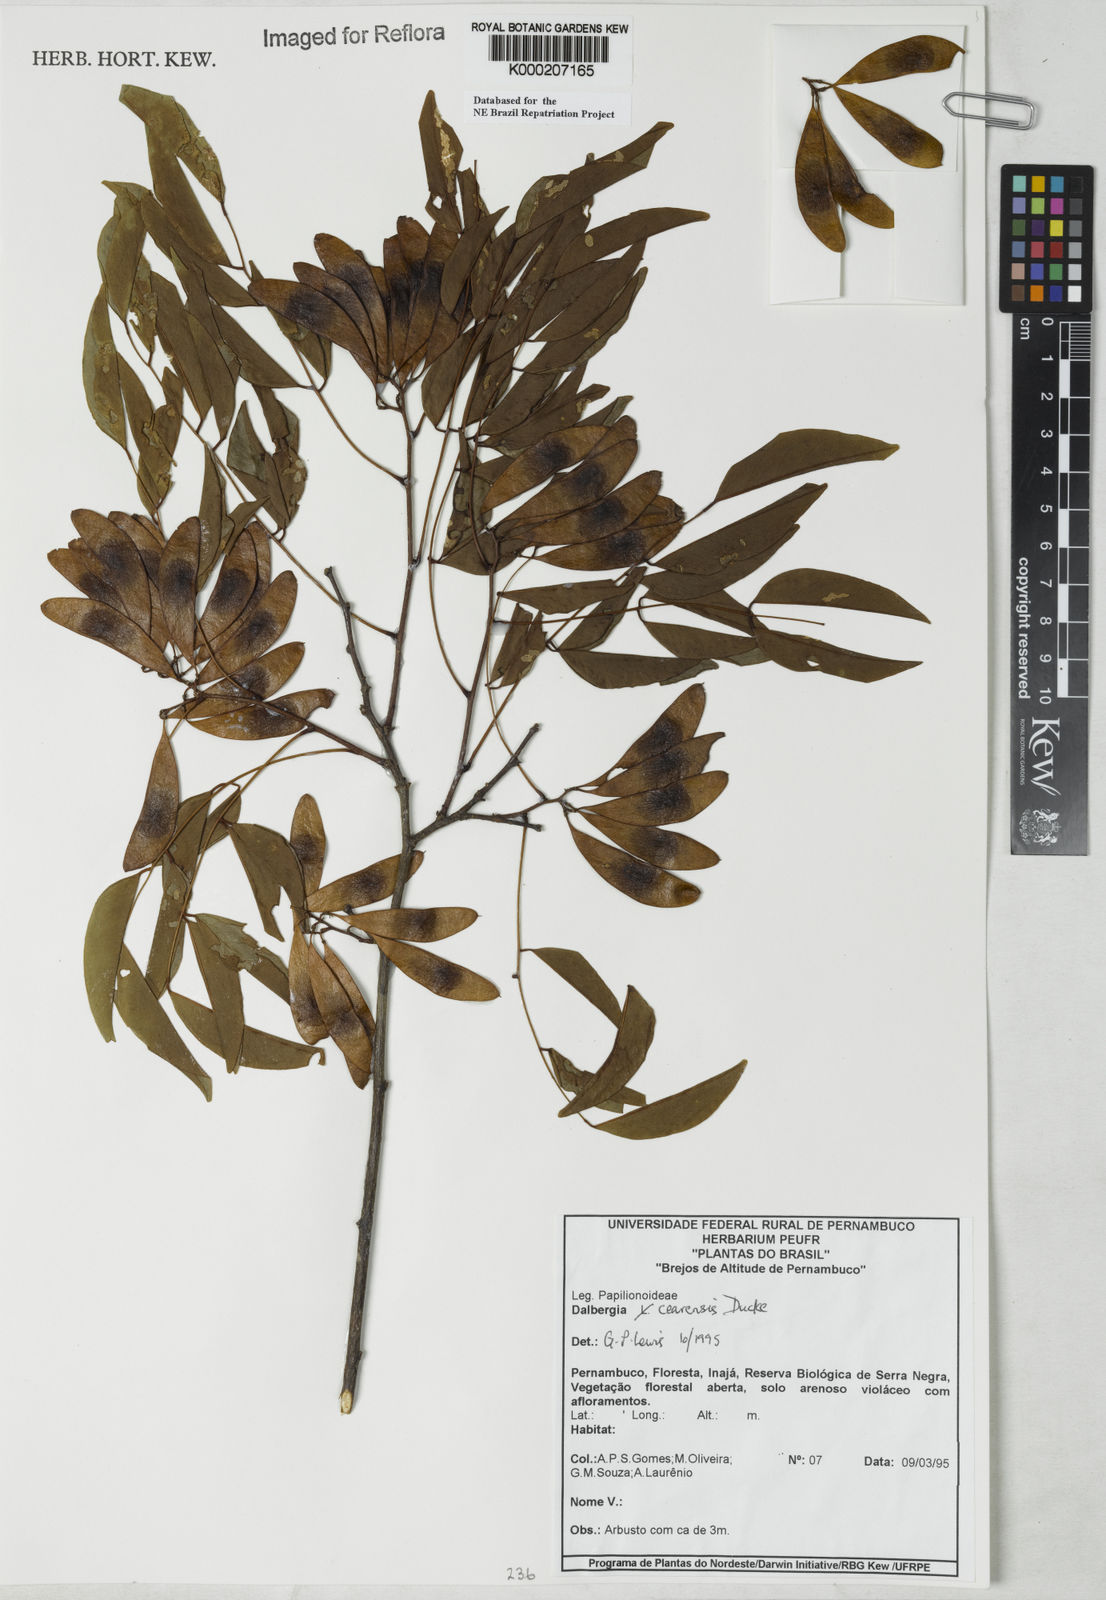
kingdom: Plantae
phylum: Tracheophyta
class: Magnoliopsida
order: Fabales
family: Fabaceae
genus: Dalbergia
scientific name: Dalbergia cearensis
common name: Brazilian-king-wood
